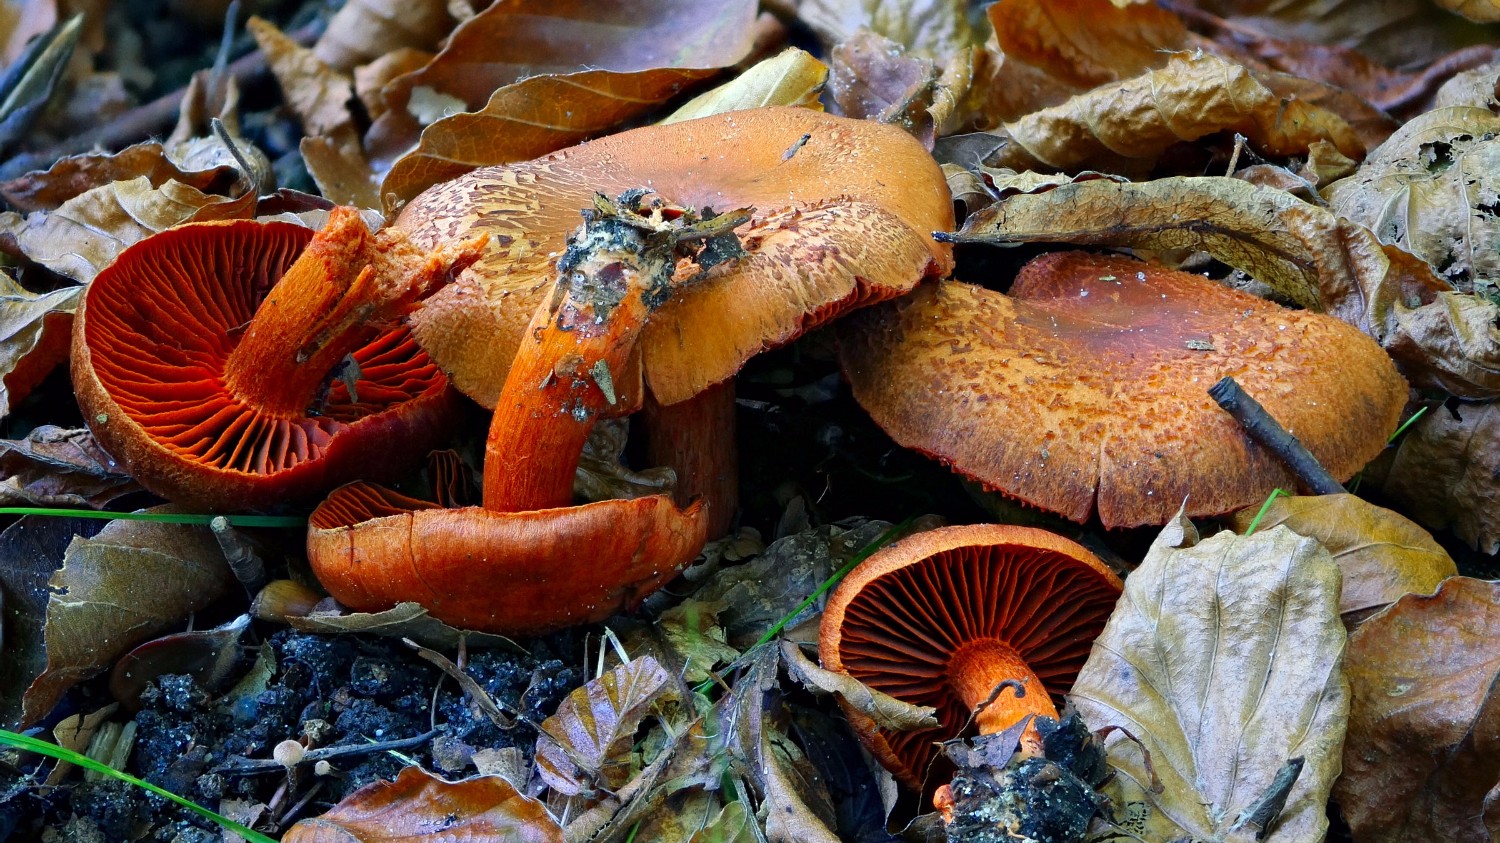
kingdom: Fungi
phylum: Basidiomycota
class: Agaricomycetes
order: Agaricales
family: Cortinariaceae
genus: Cortinarius
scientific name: Cortinarius cinnabarinus
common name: cinnober-slørhat
